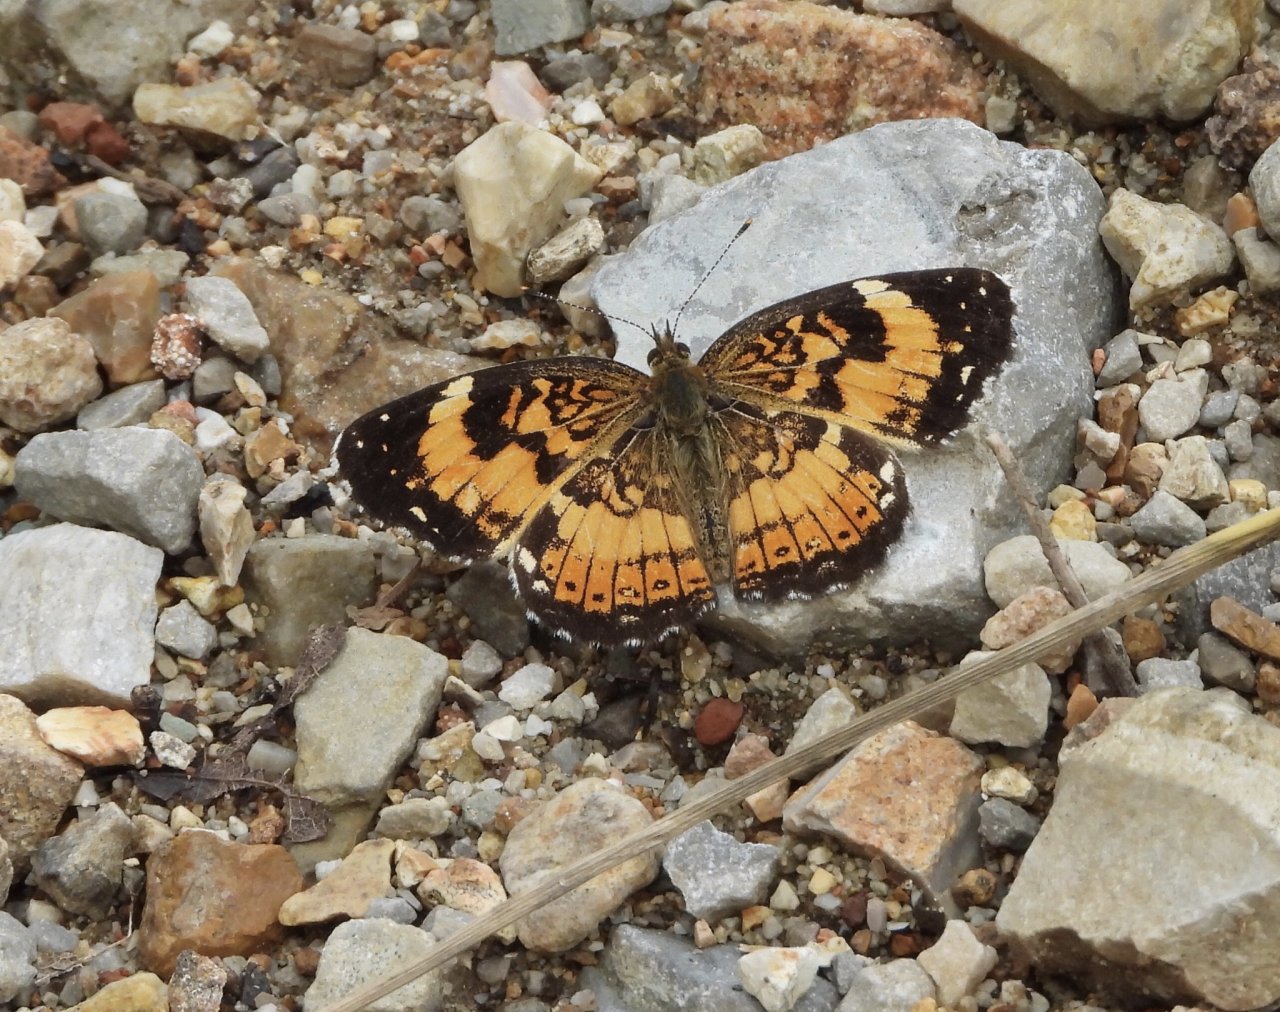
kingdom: Animalia
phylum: Arthropoda
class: Insecta
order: Lepidoptera
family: Nymphalidae
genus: Chlosyne
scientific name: Chlosyne nycteis
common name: Silvery Checkerspot
